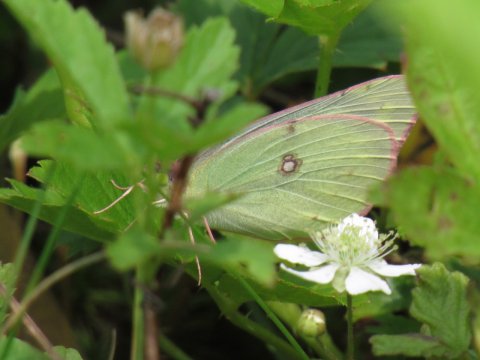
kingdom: Animalia
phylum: Arthropoda
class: Insecta
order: Lepidoptera
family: Pieridae
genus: Colias
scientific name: Colias philodice
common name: Clouded Sulphur
